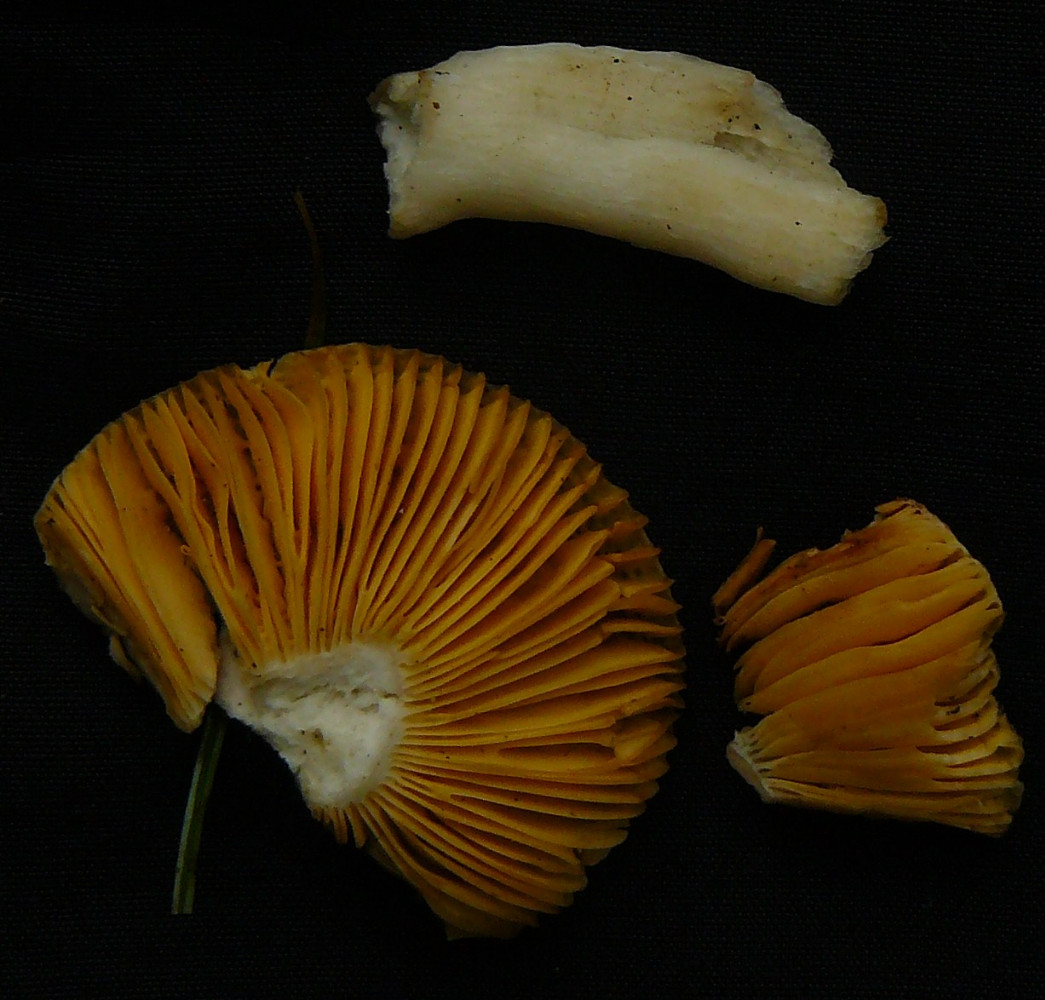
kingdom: Fungi
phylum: Basidiomycota
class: Agaricomycetes
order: Russulales
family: Russulaceae
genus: Russula
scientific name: Russula odorata
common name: duft-skørhat
